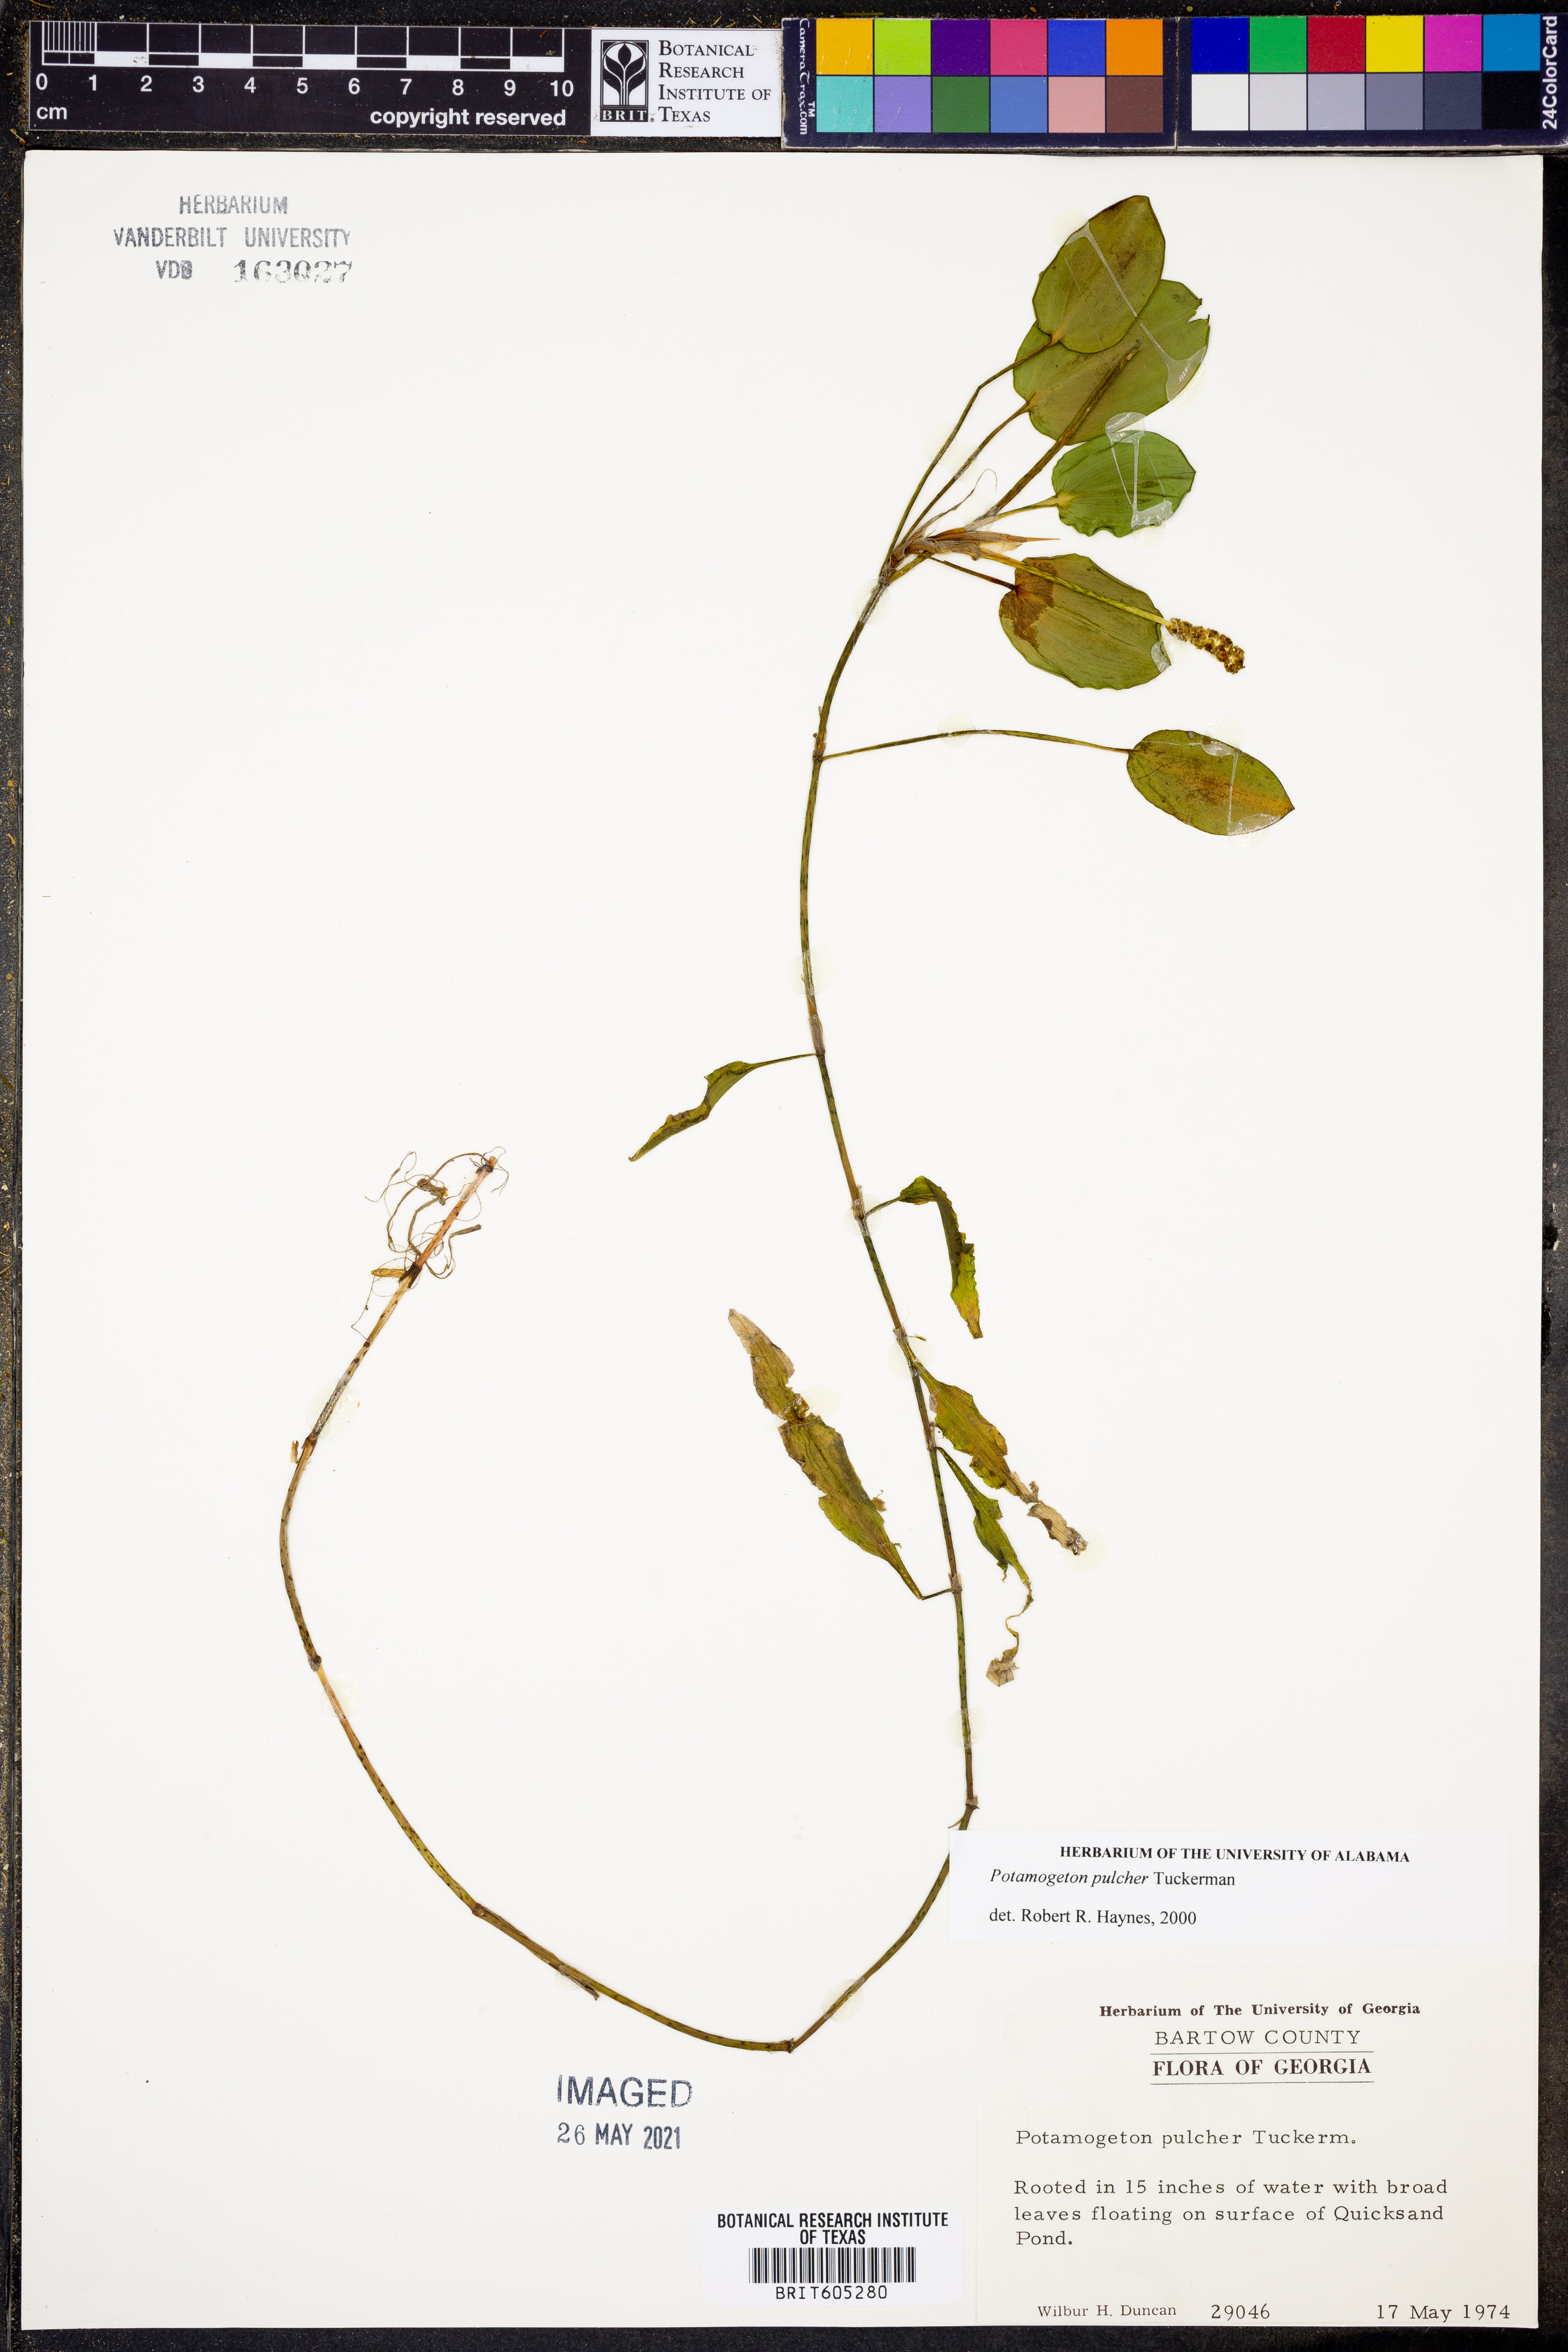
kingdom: Plantae
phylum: Tracheophyta
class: Liliopsida
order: Alismatales
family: Potamogetonaceae
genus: Potamogeton
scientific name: Potamogeton pulcher
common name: Heart-leaved pondweed
